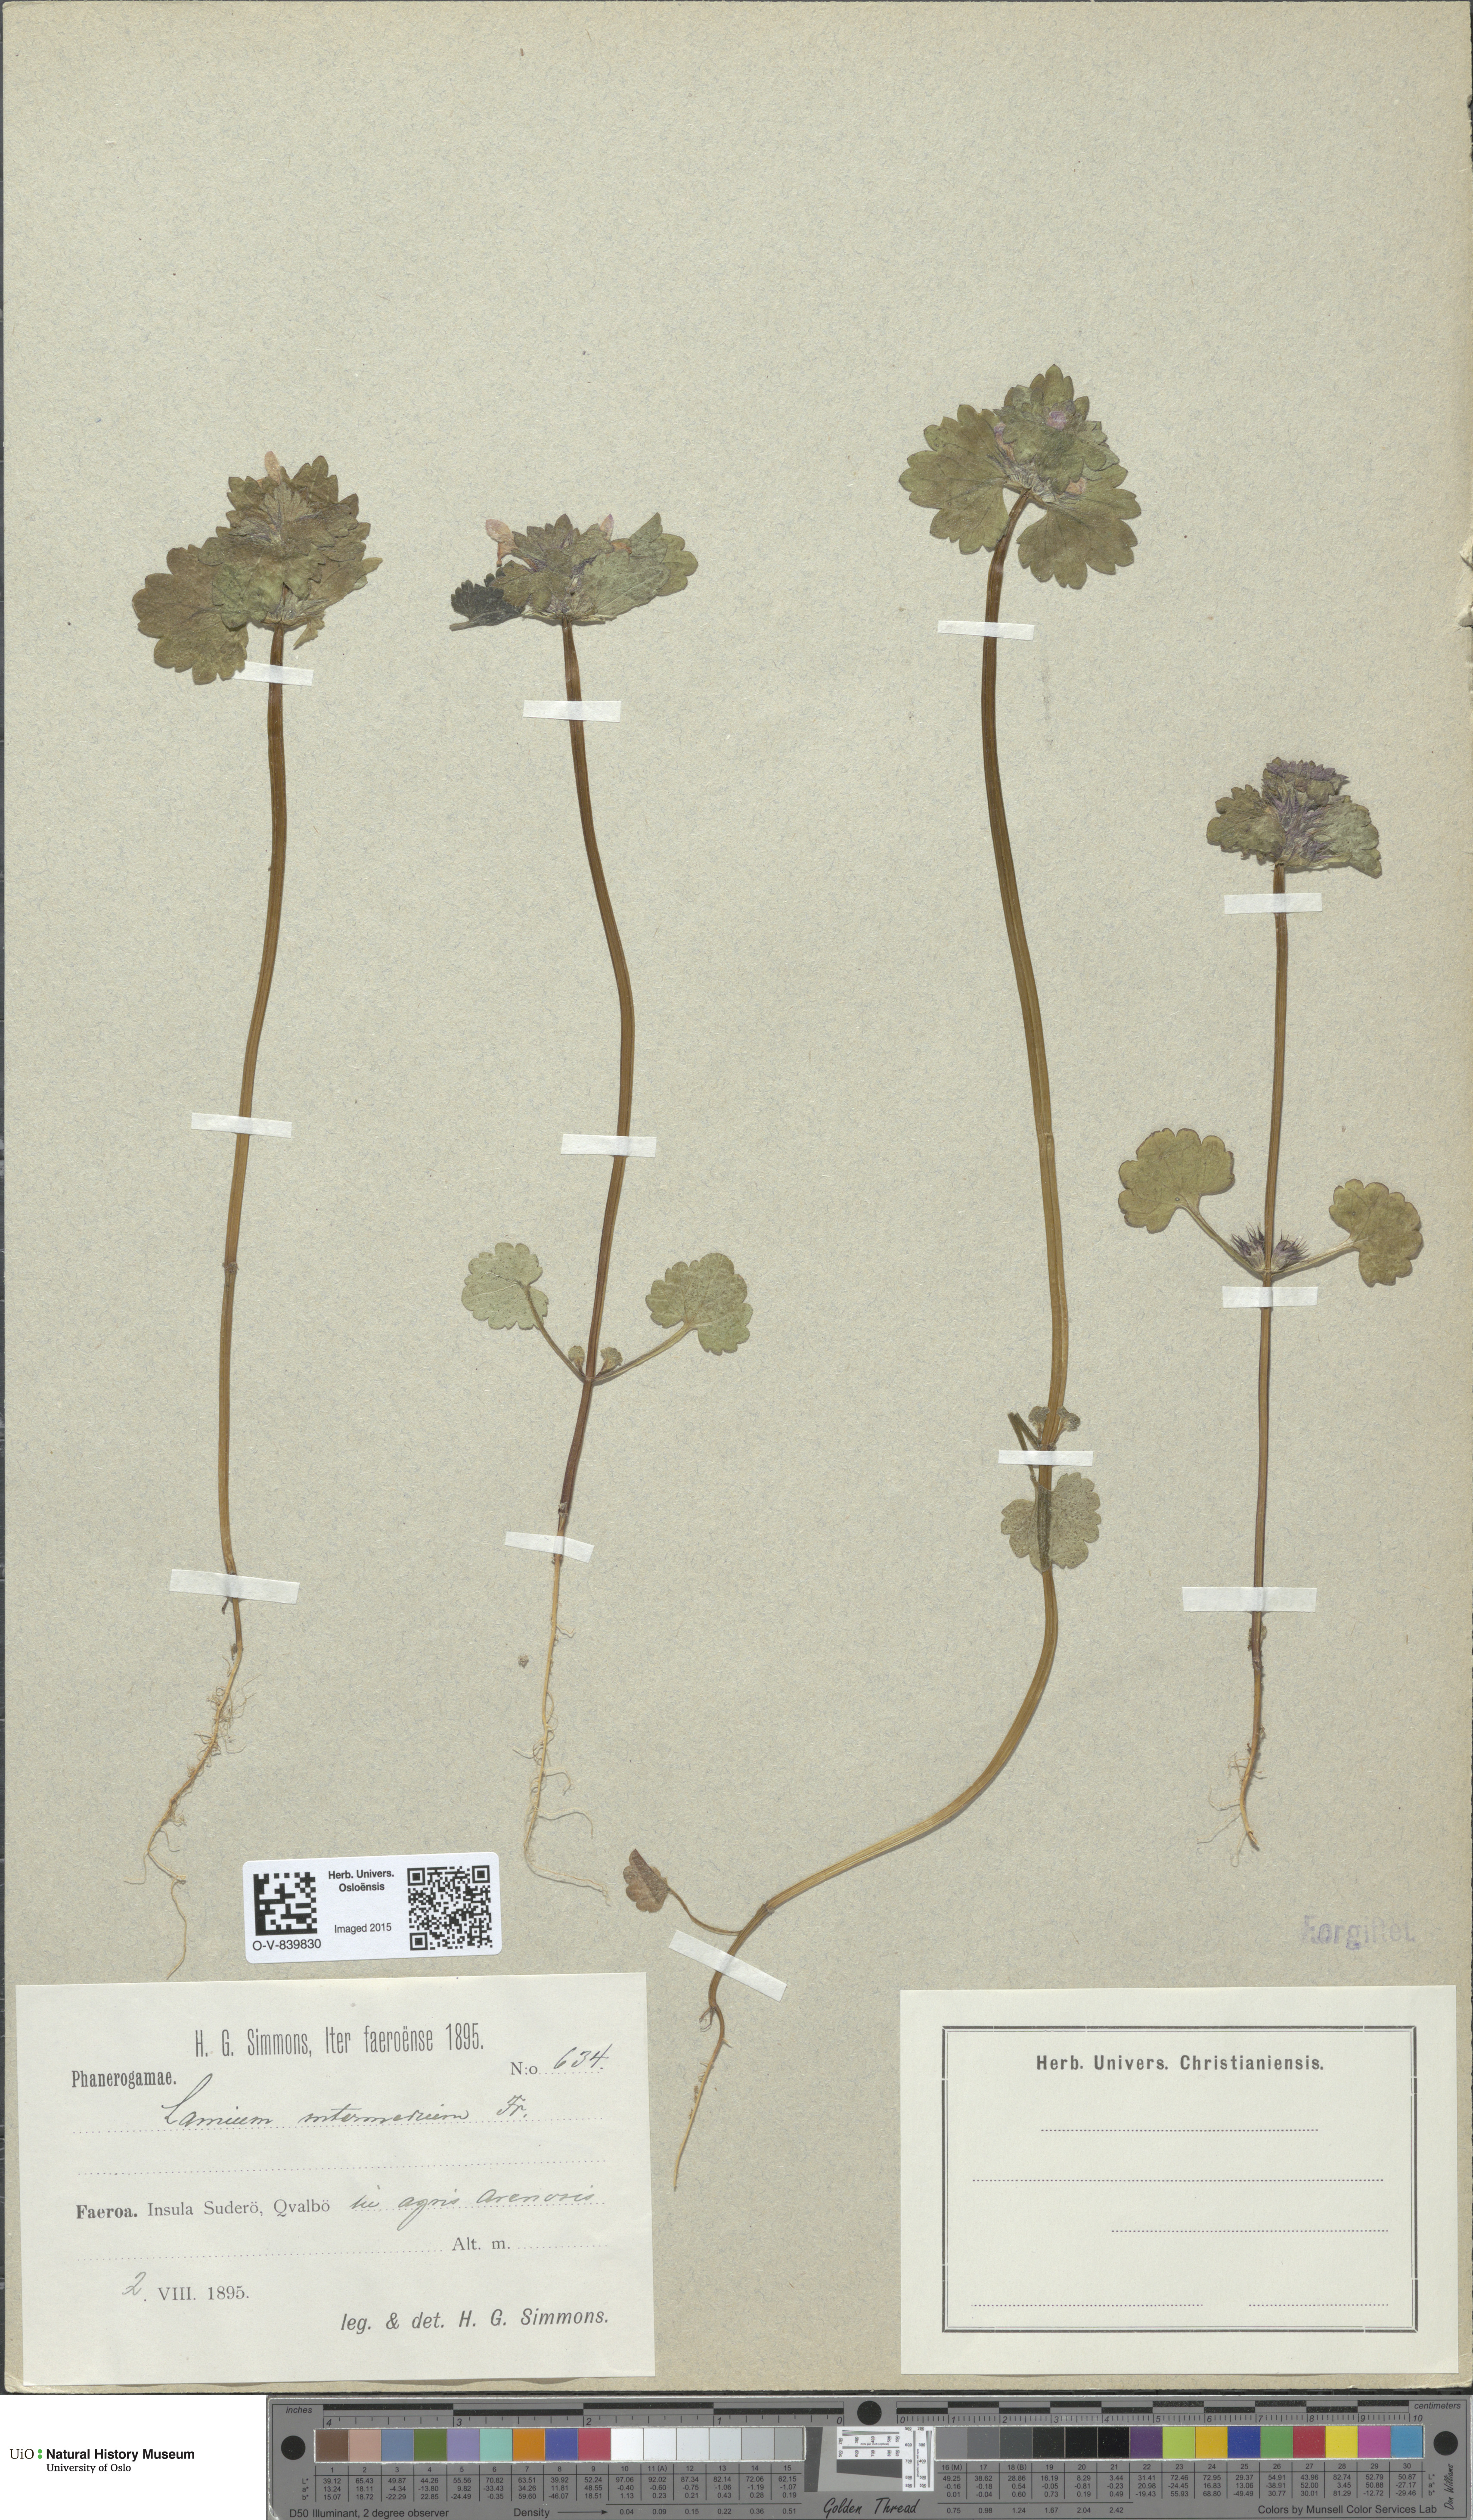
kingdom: Plantae
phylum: Tracheophyta
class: Magnoliopsida
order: Lamiales
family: Lamiaceae
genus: Lamium
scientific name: Lamium confertum
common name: Northern dead-nettle
